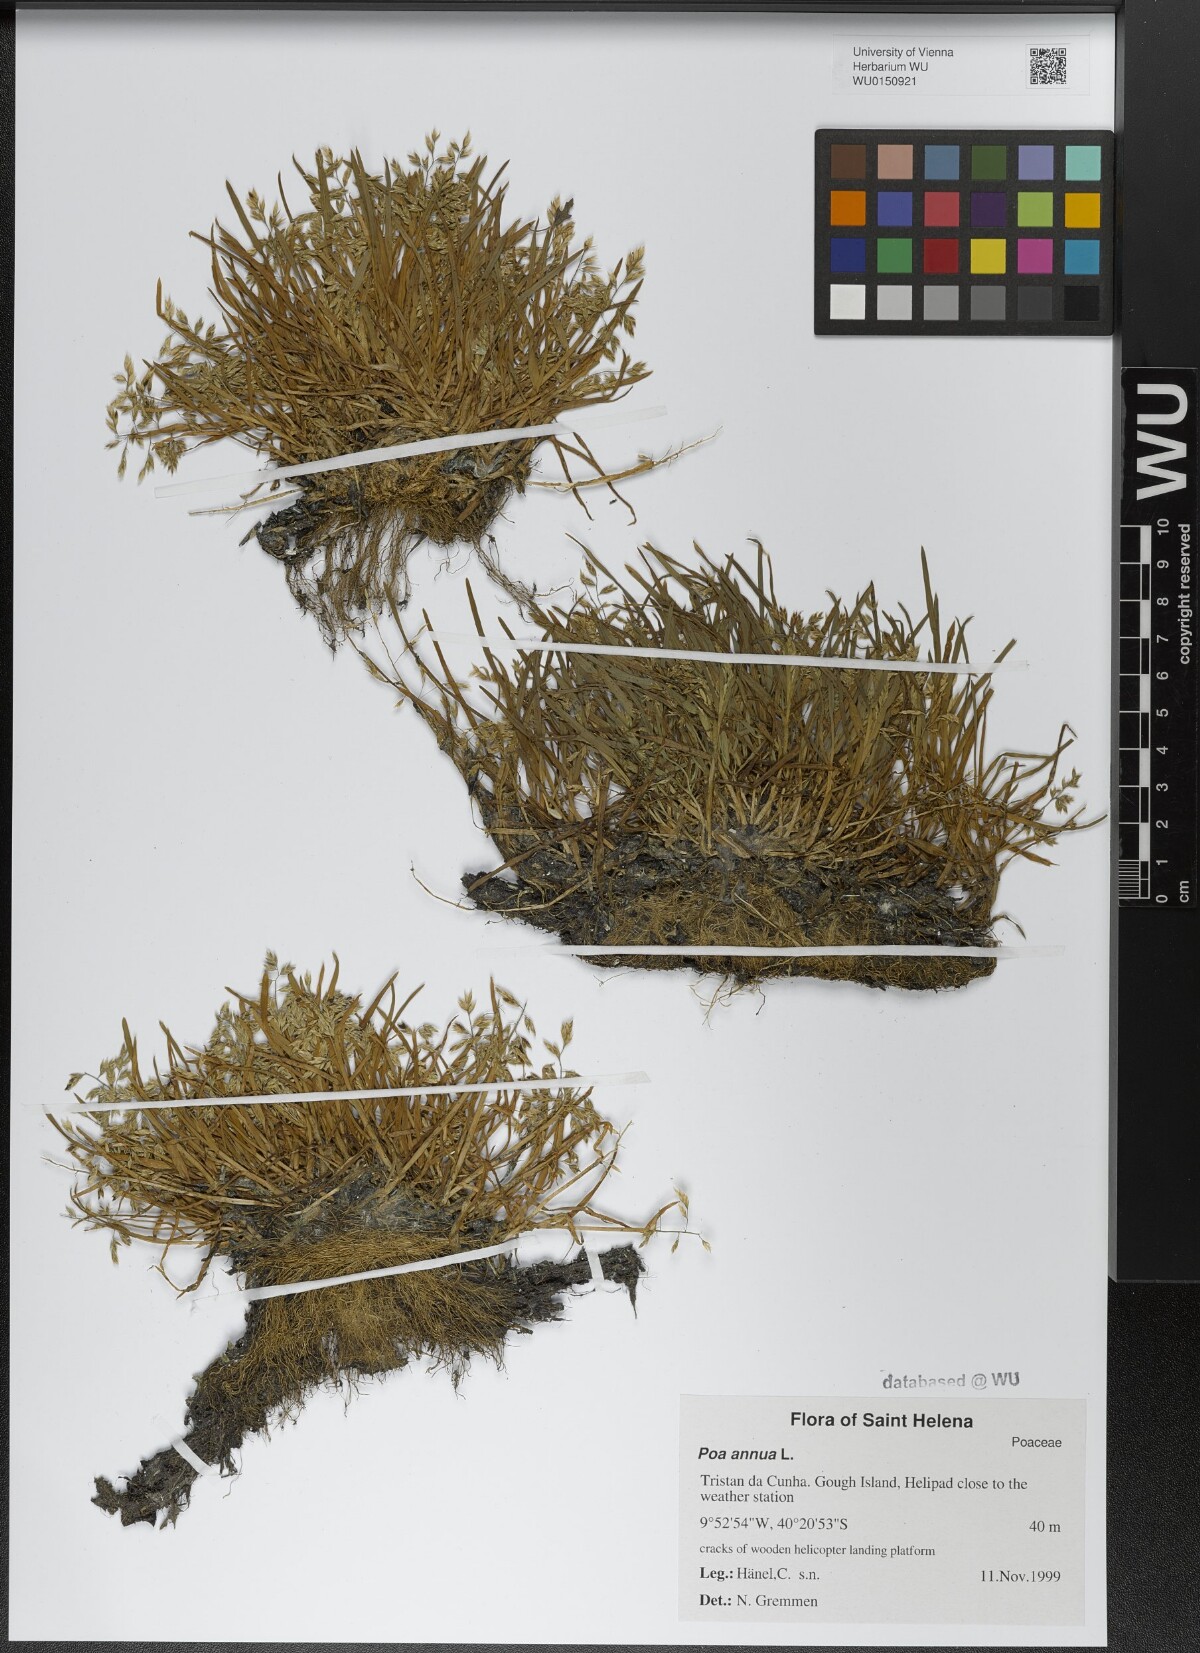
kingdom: Plantae
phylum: Tracheophyta
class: Liliopsida
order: Poales
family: Poaceae
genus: Poa
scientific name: Poa annua
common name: Annual bluegrass
